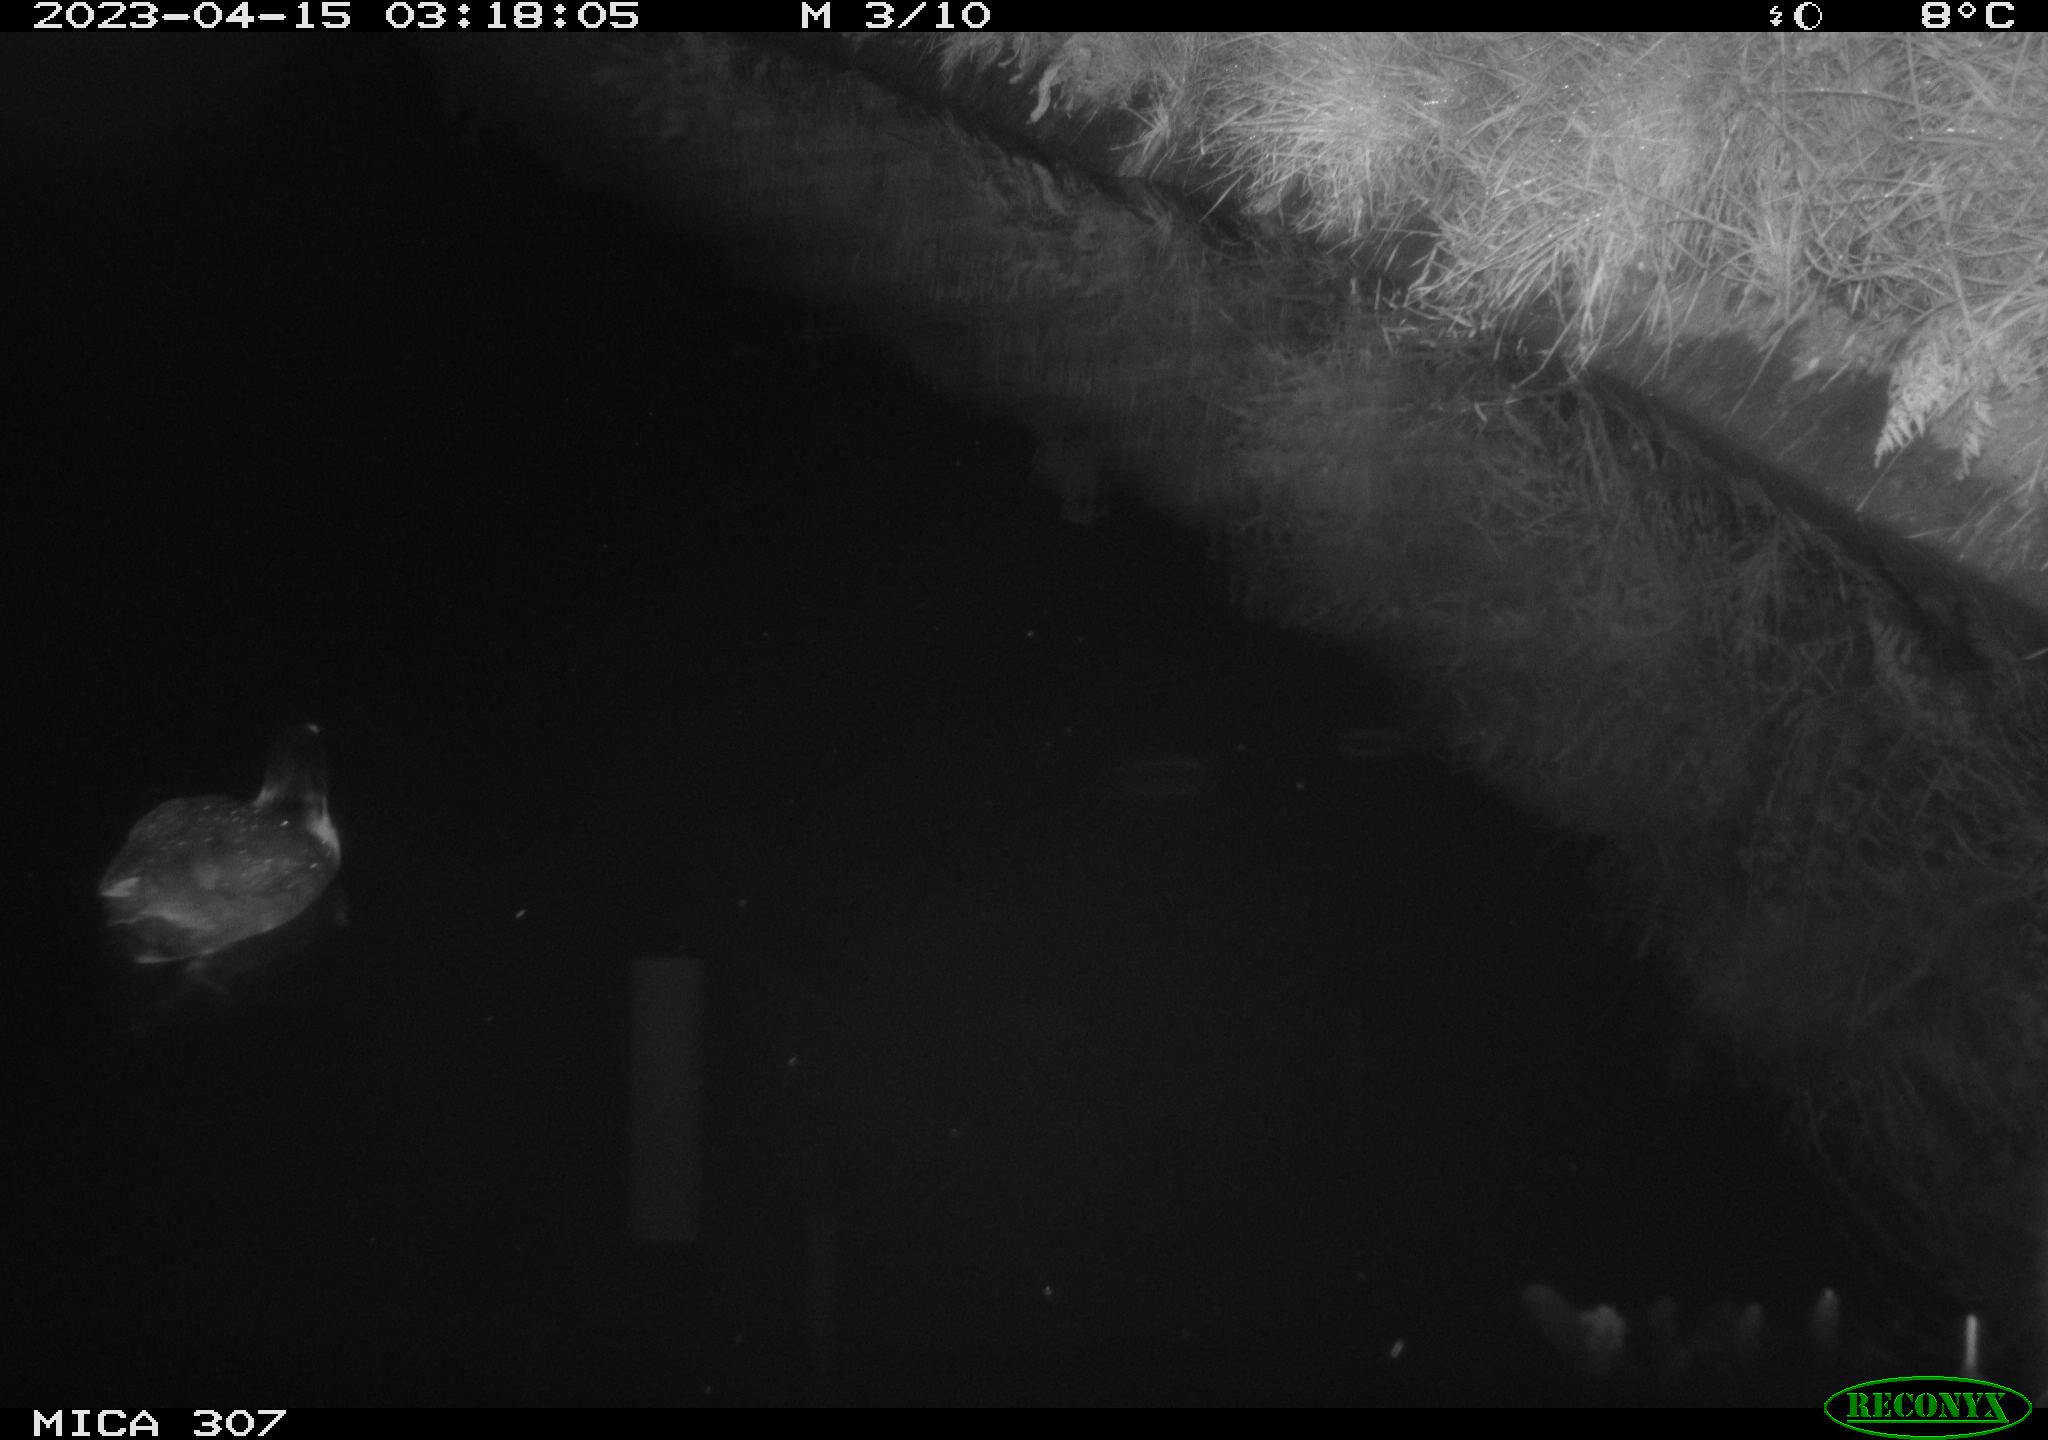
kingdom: Animalia
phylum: Chordata
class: Aves
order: Anseriformes
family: Anatidae
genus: Anas
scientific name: Anas
